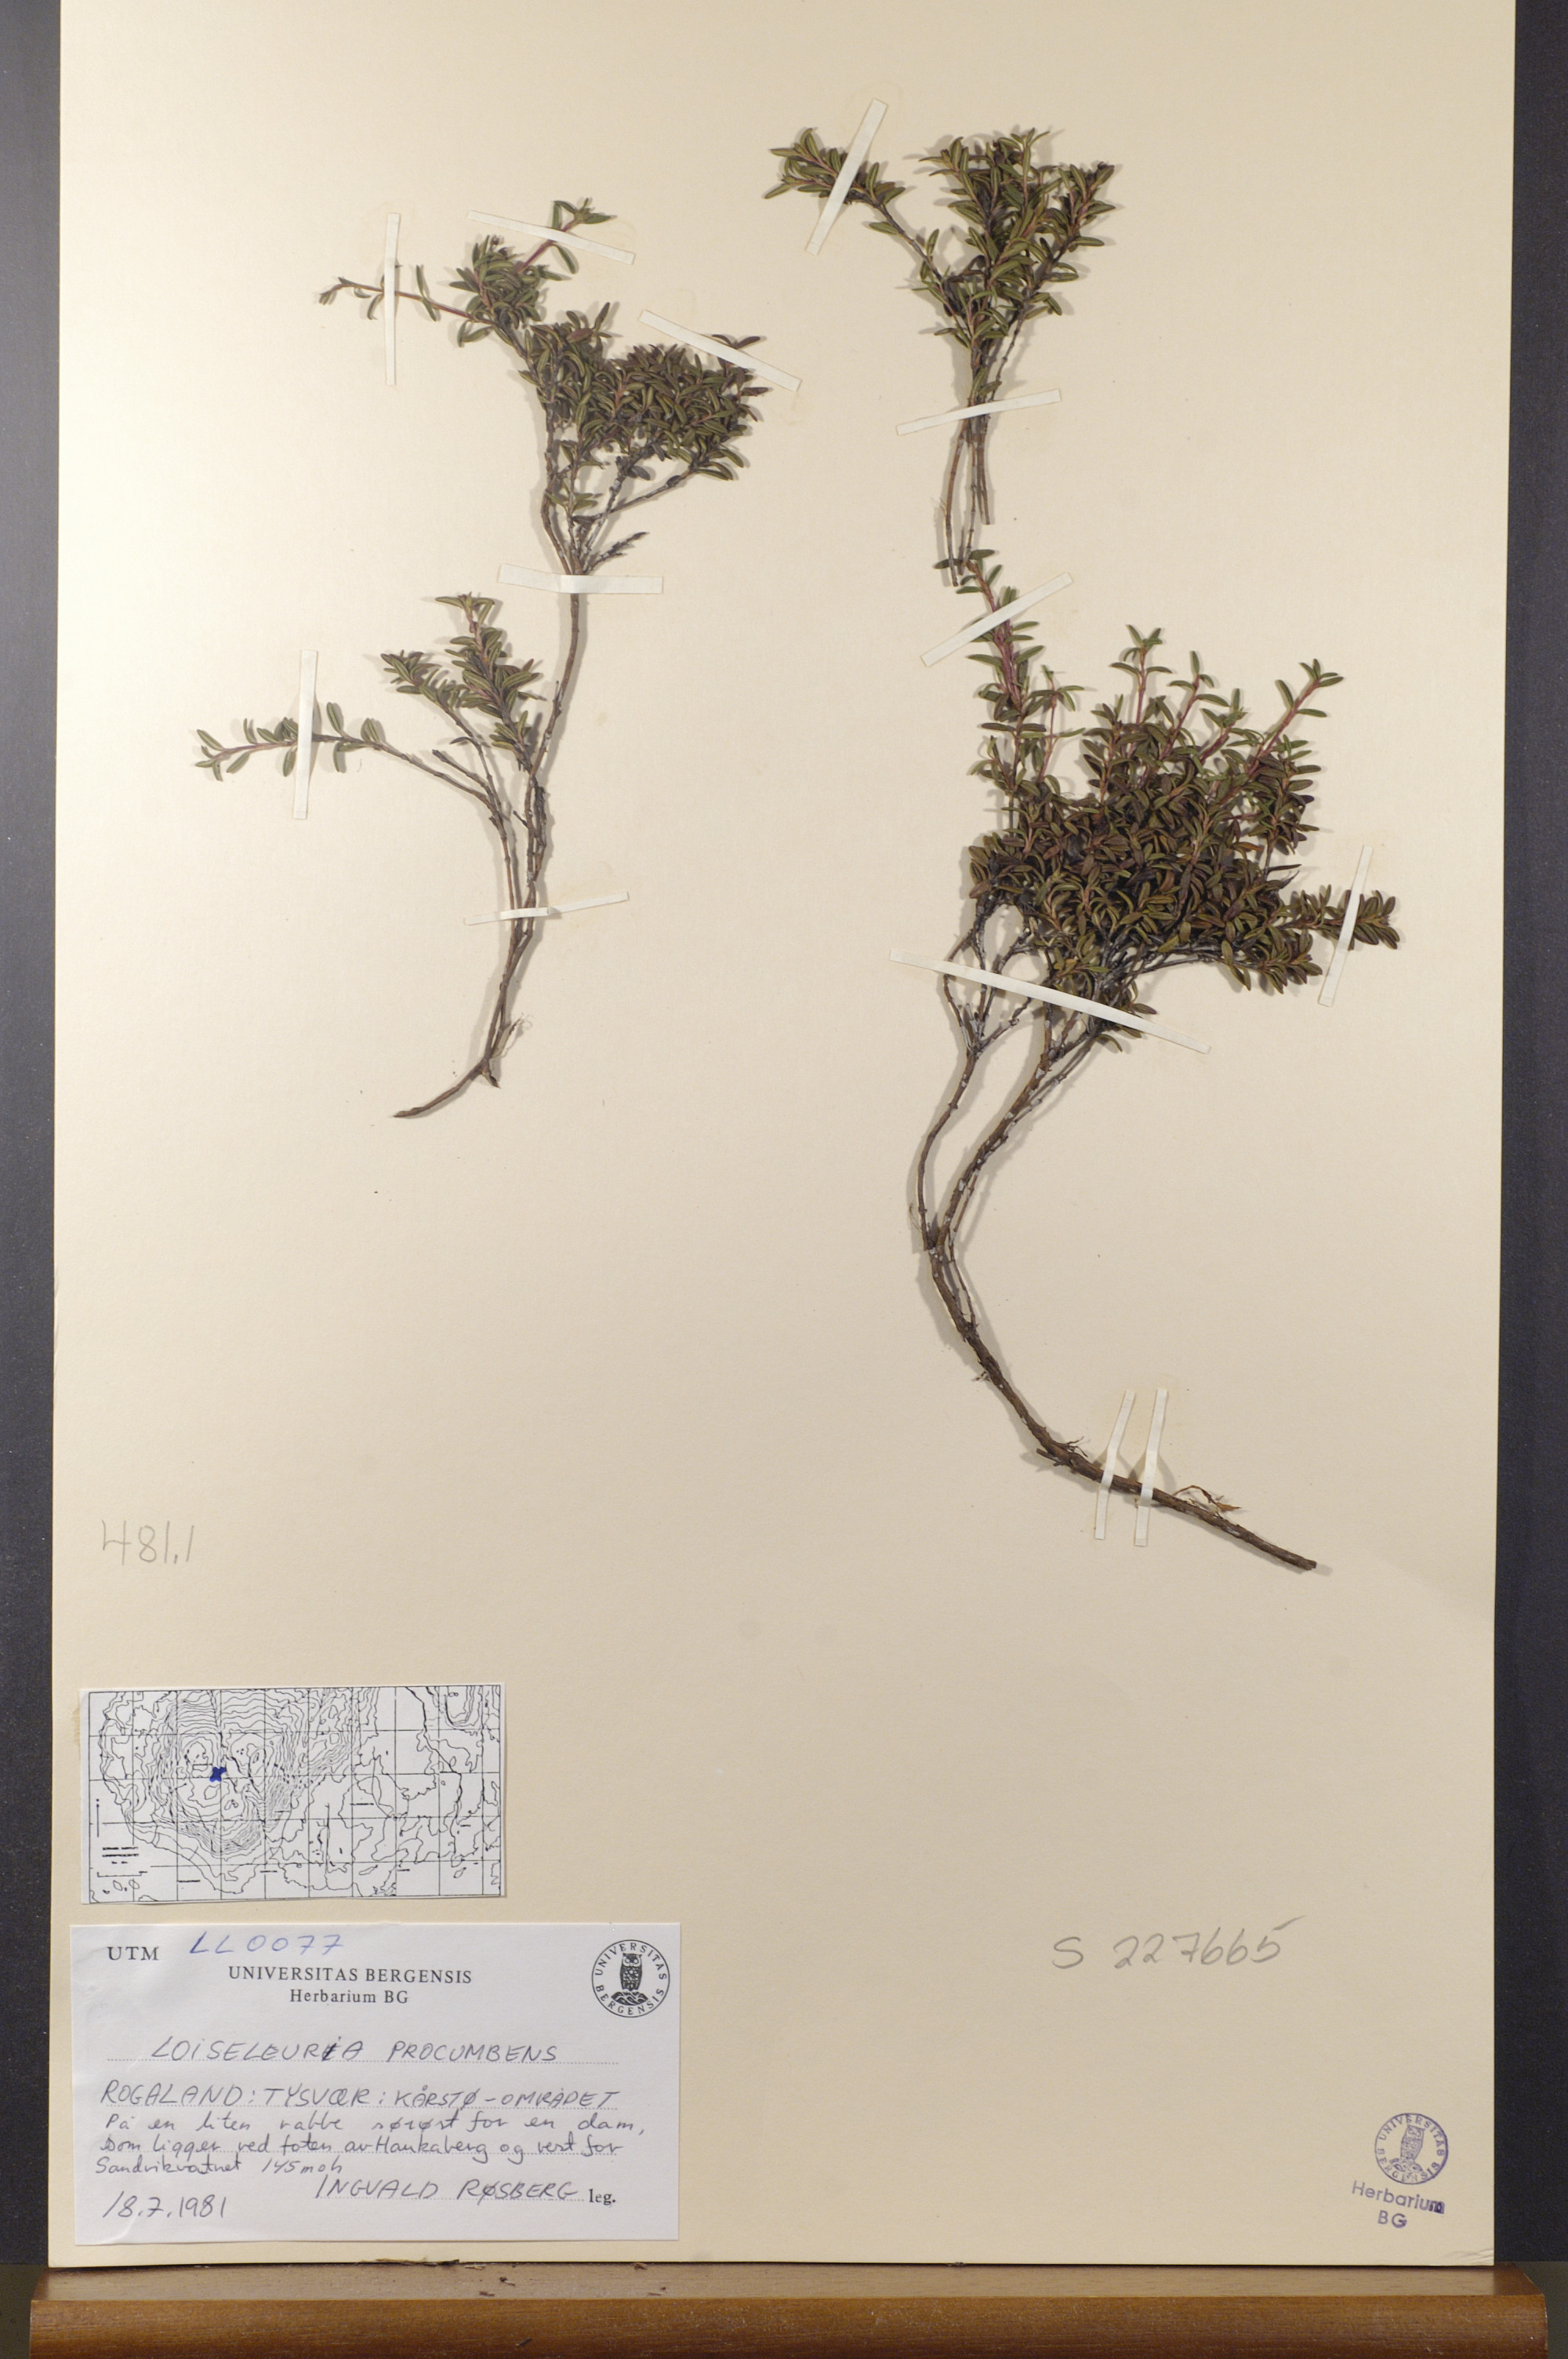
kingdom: Plantae
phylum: Tracheophyta
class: Magnoliopsida
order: Ericales
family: Ericaceae
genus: Kalmia
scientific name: Kalmia procumbens
